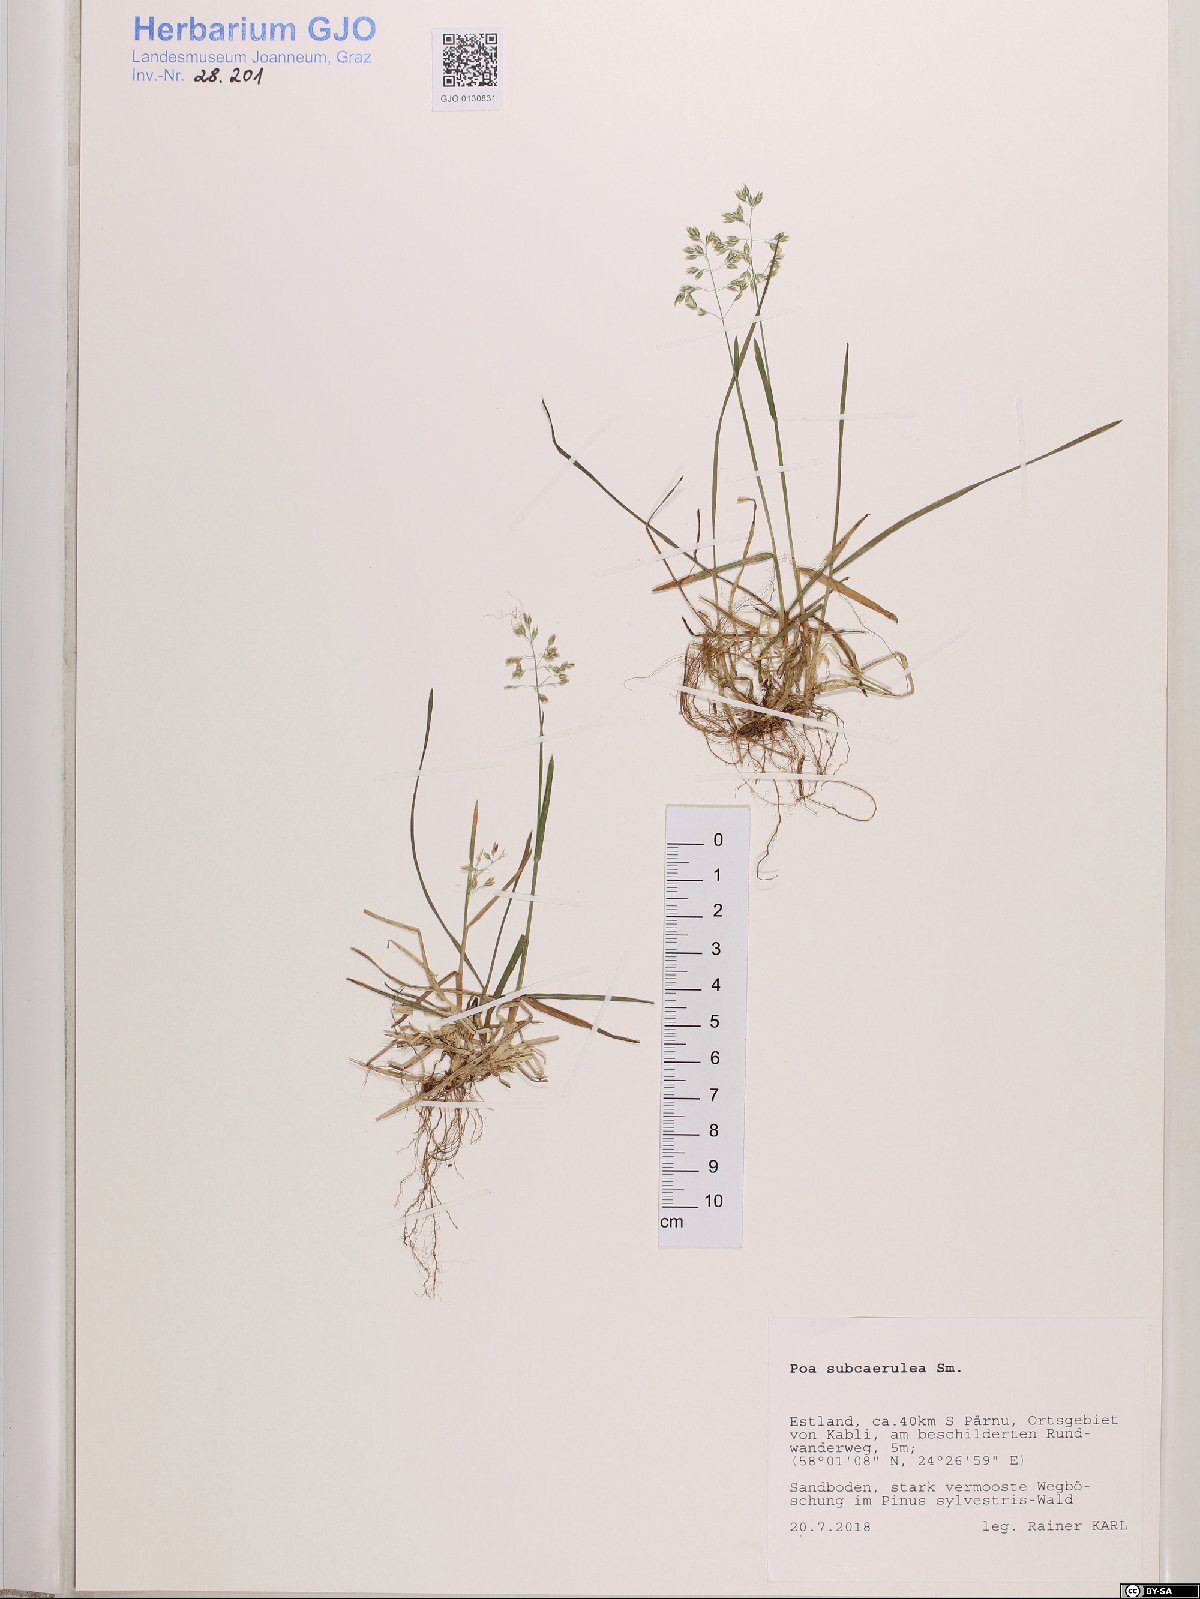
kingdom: Plantae
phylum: Tracheophyta
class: Liliopsida
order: Poales
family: Poaceae
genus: Poa
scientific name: Poa humilis
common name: Spreading meadow-grass
